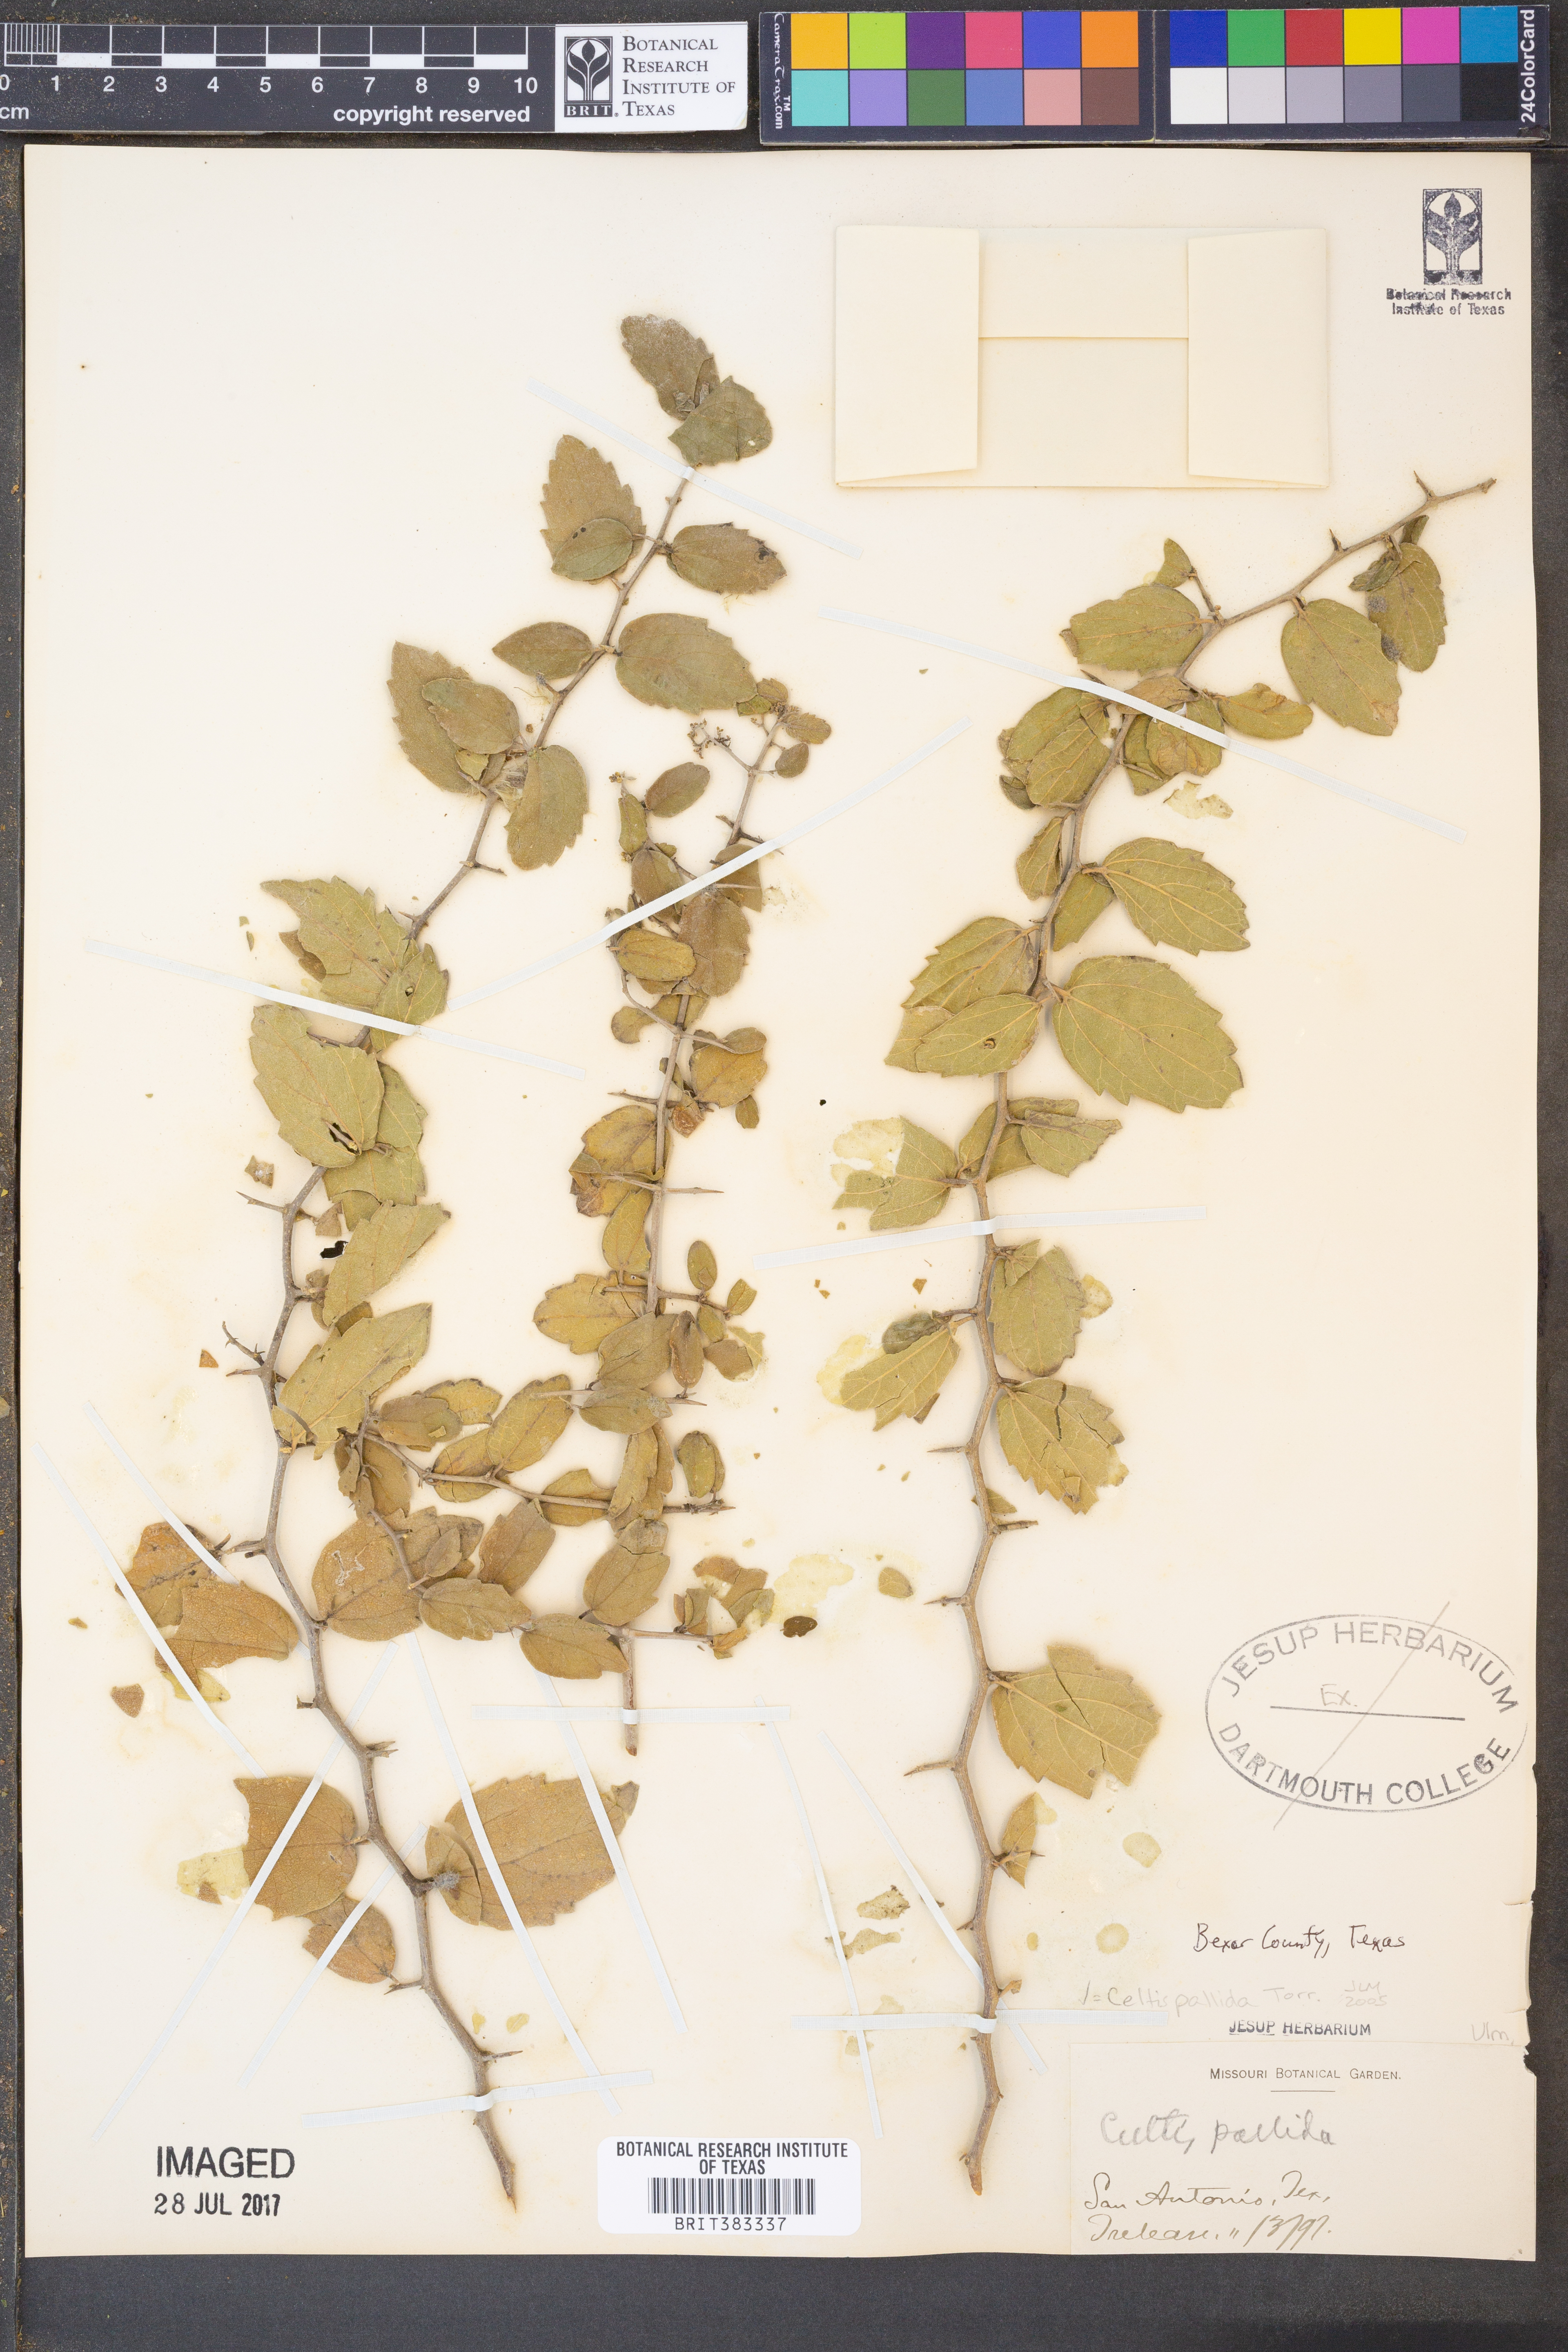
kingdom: Plantae
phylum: Tracheophyta
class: Magnoliopsida
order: Rosales
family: Cannabaceae
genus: Celtis
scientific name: Celtis pallida
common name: Desert hackberry
